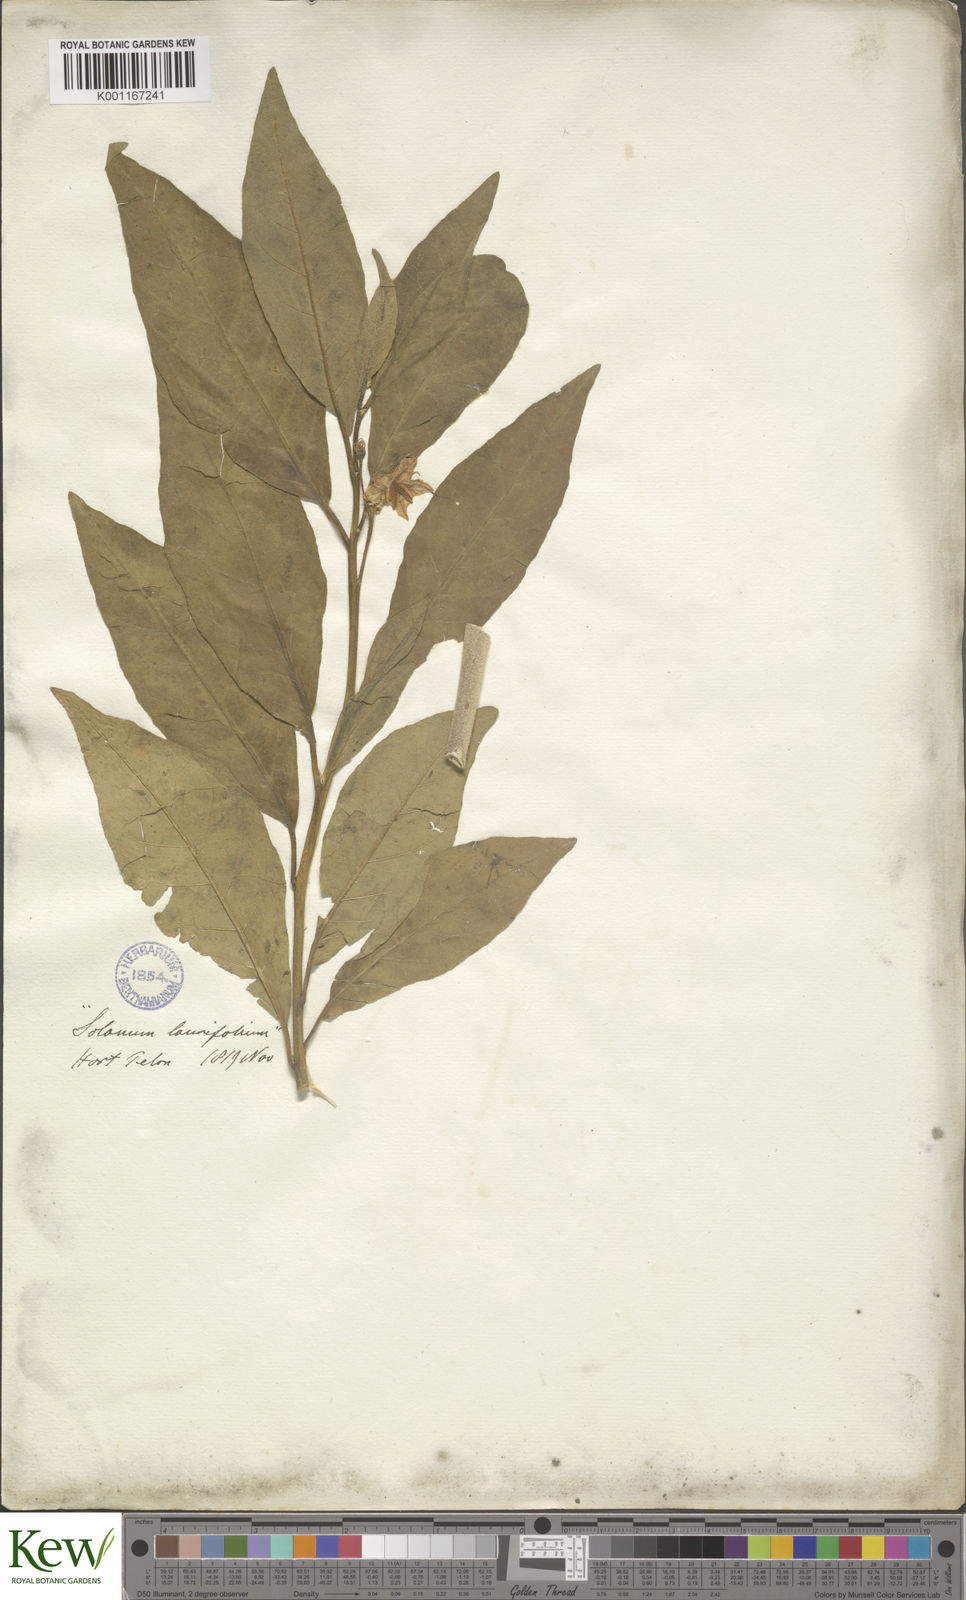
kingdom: Plantae
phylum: Tracheophyta
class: Magnoliopsida
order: Solanales
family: Solanaceae
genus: Solanum
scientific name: Solanum bonariense
